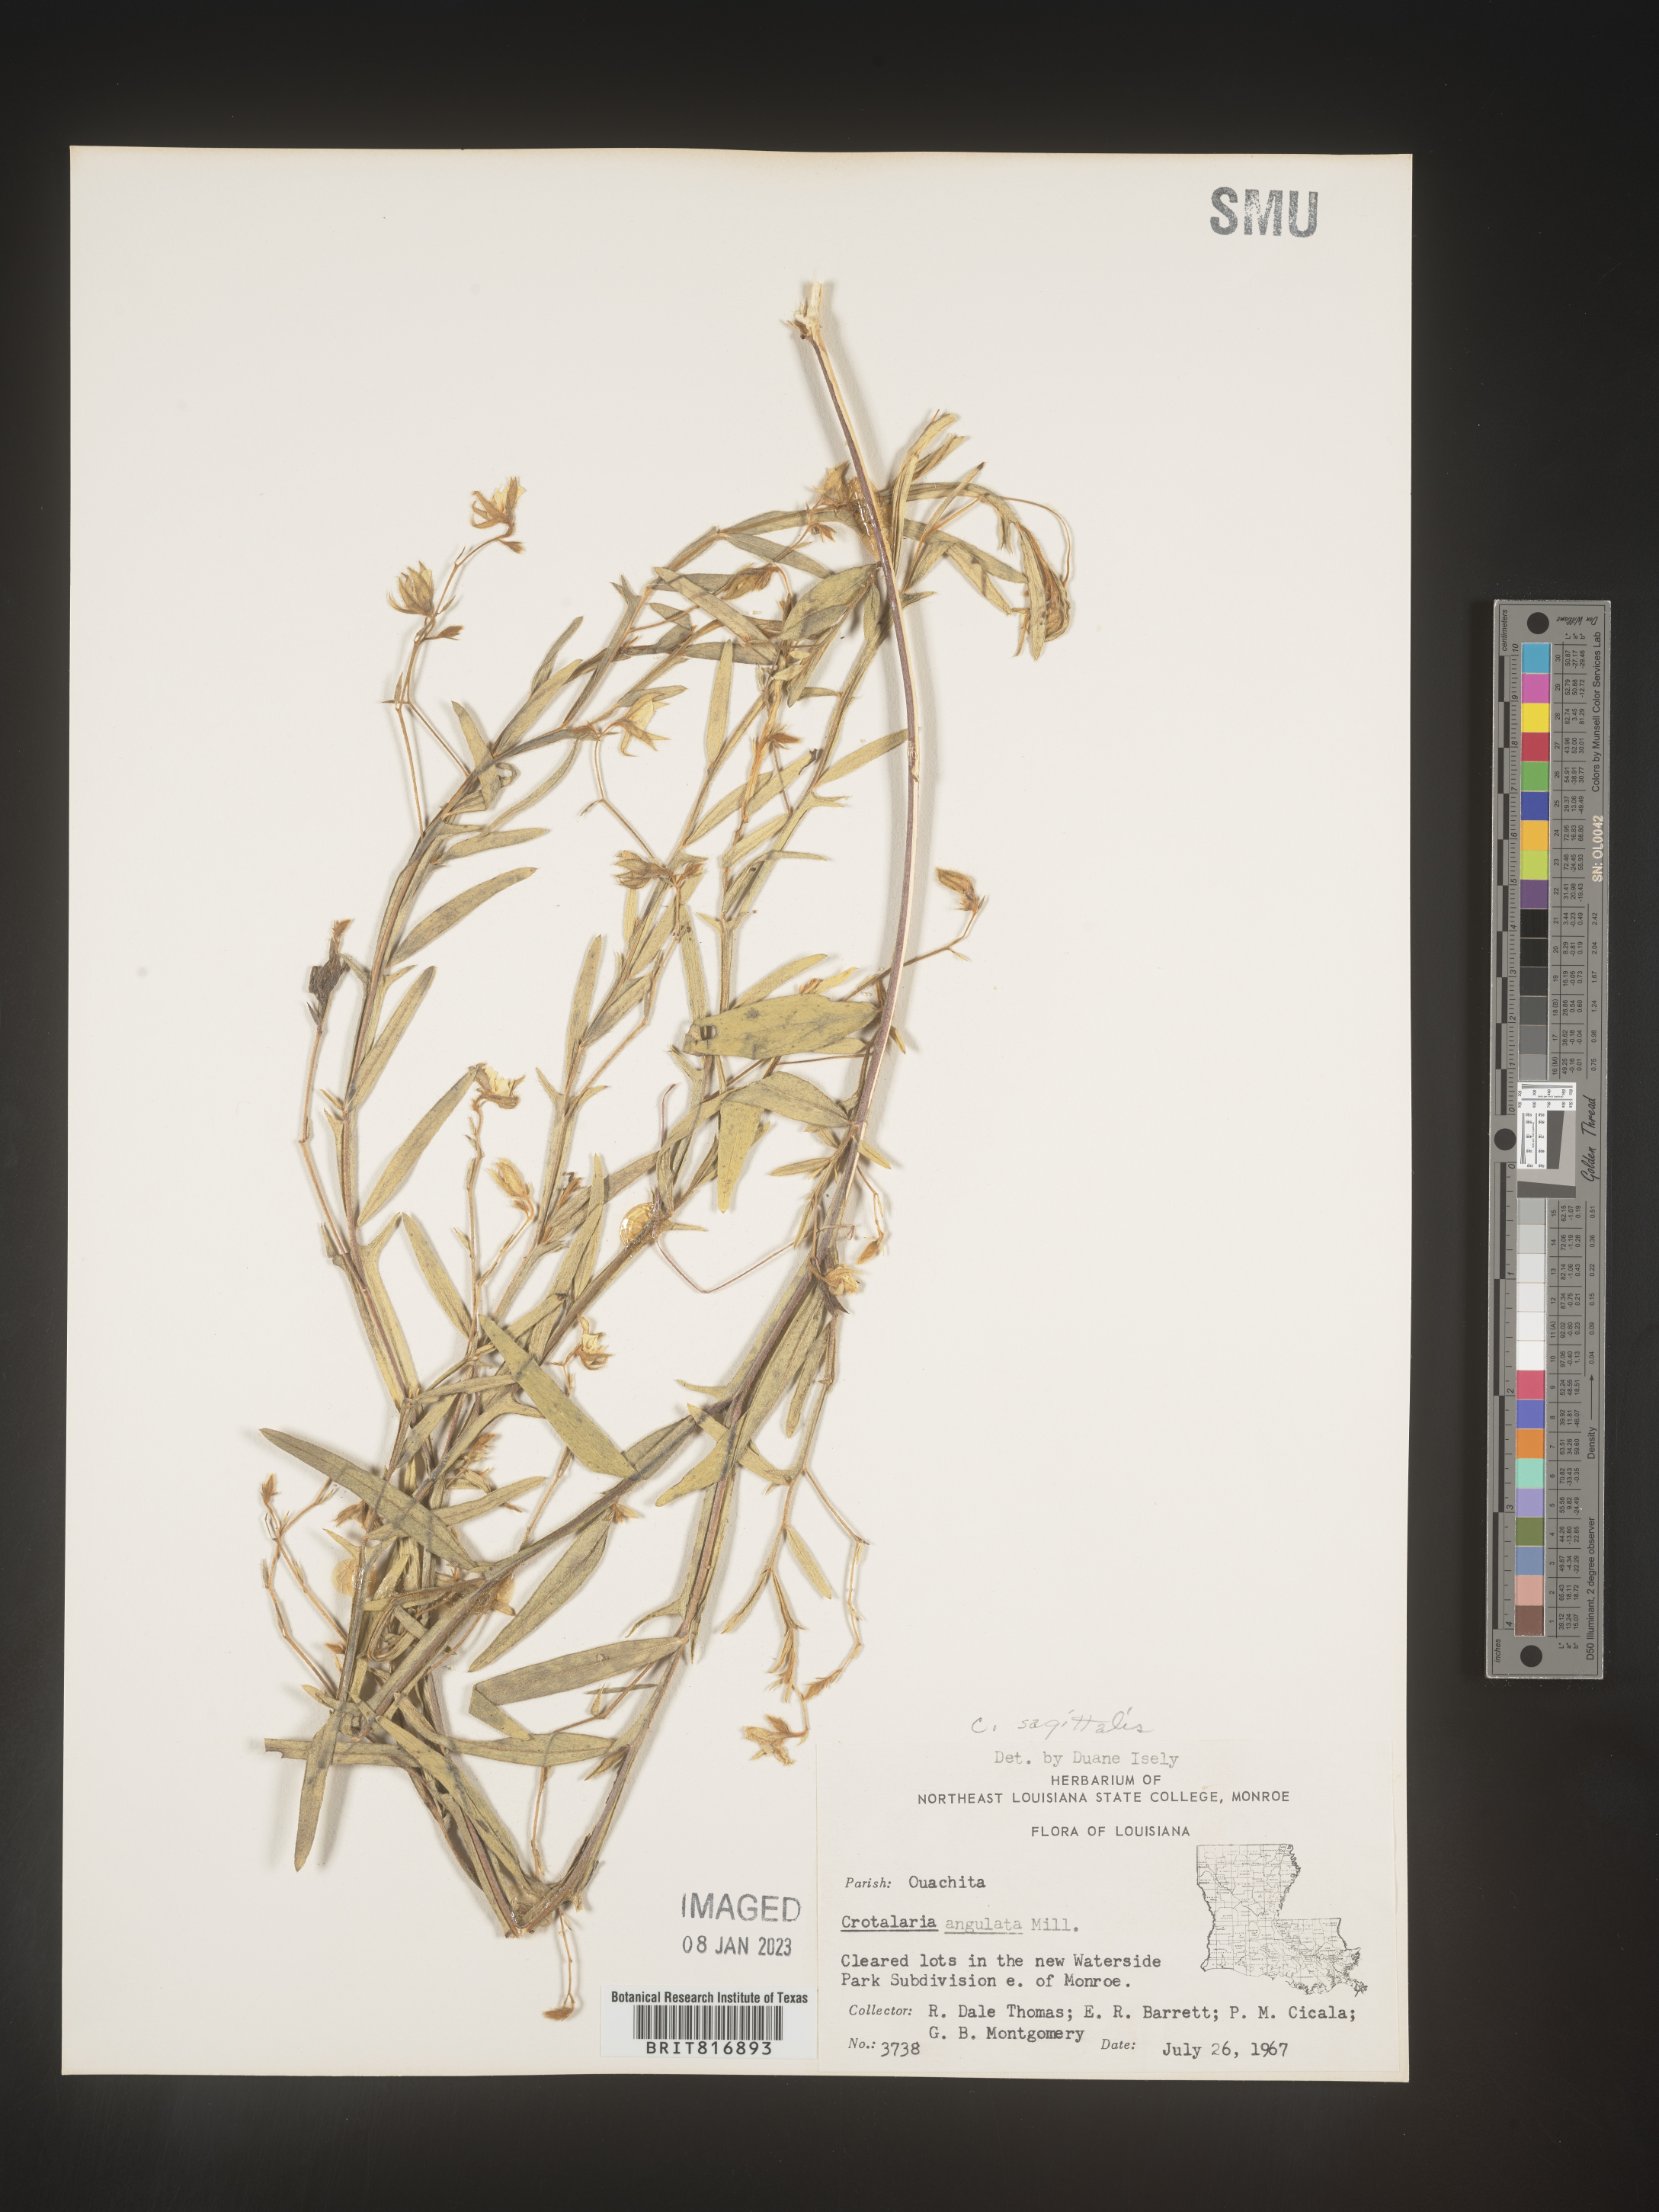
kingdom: Plantae
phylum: Tracheophyta
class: Magnoliopsida
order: Fabales
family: Fabaceae
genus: Crotalaria
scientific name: Crotalaria sagittalis
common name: Arrowhead rattlebox
